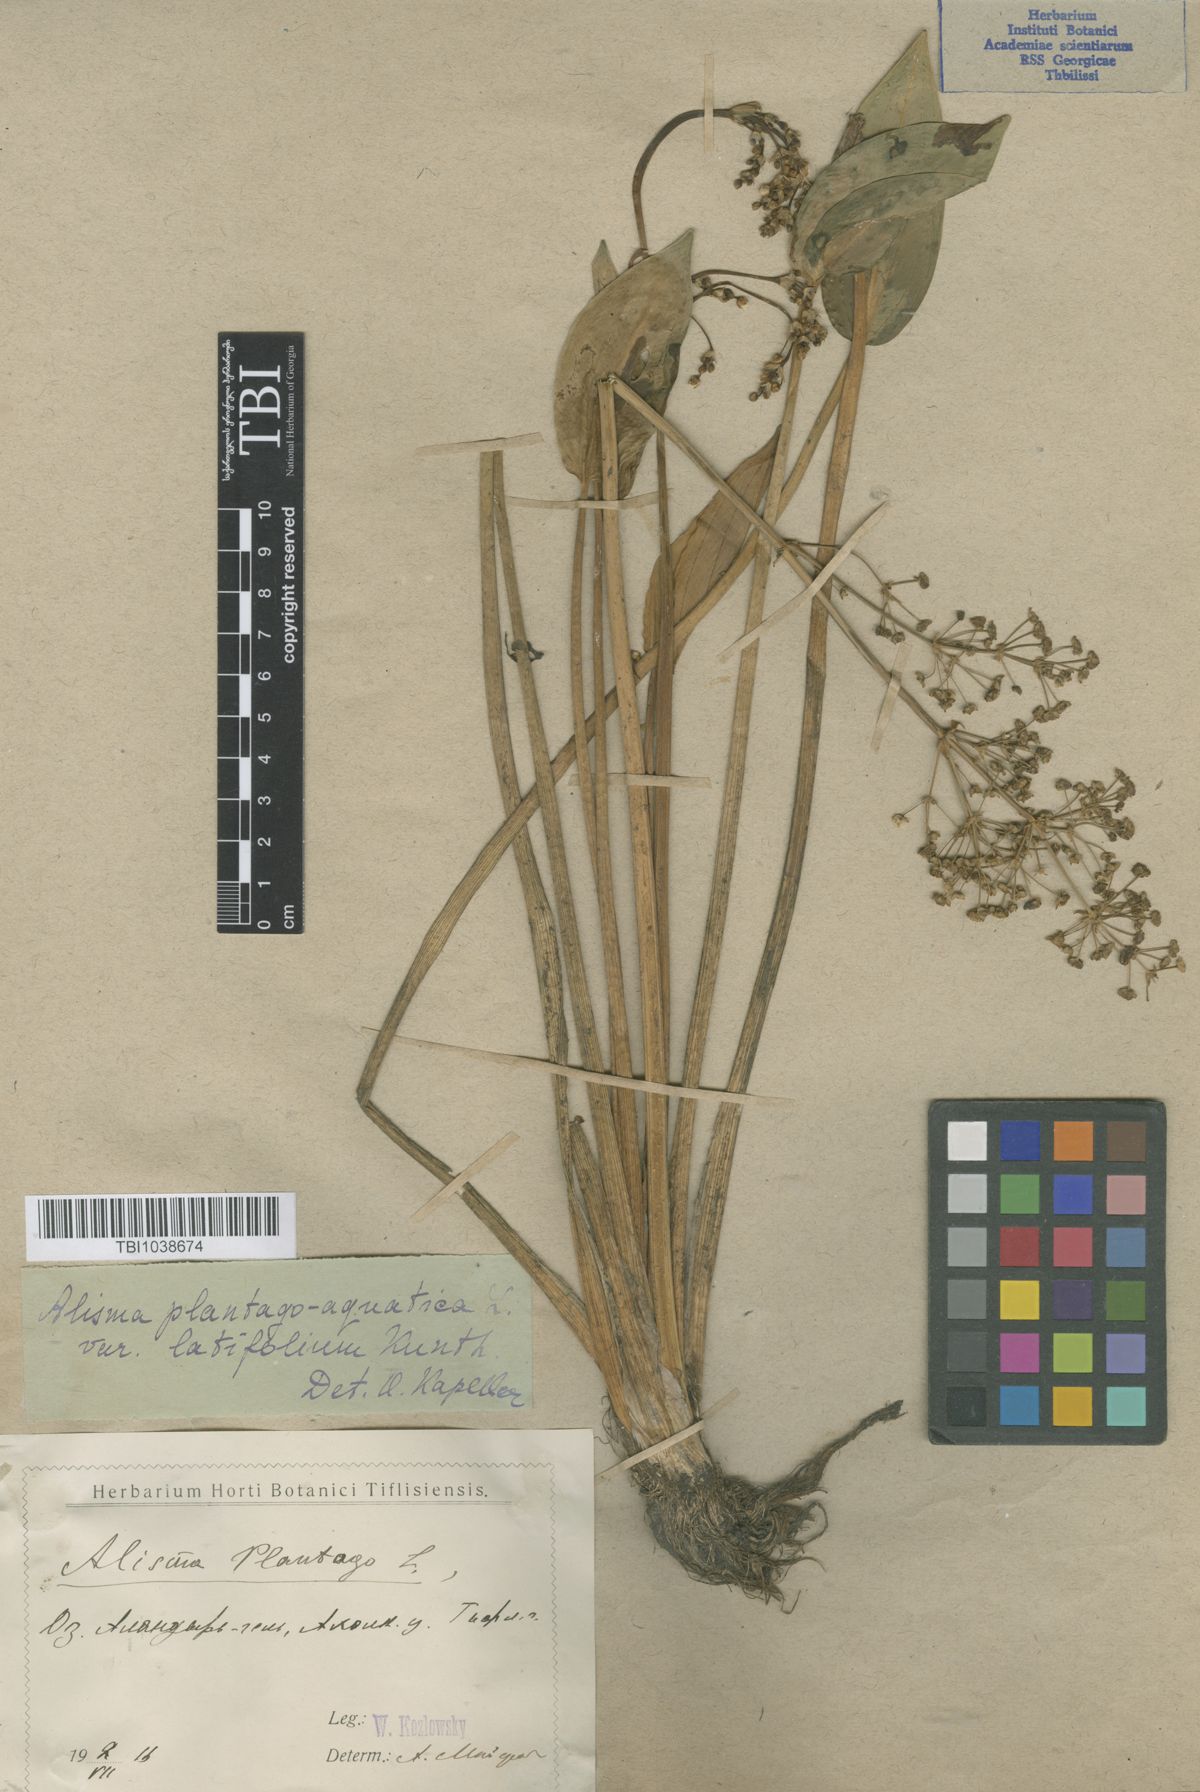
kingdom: Plantae
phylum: Tracheophyta
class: Liliopsida
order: Alismatales
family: Alismataceae
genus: Alisma
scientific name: Alisma plantago-aquatica
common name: Water-plantain
